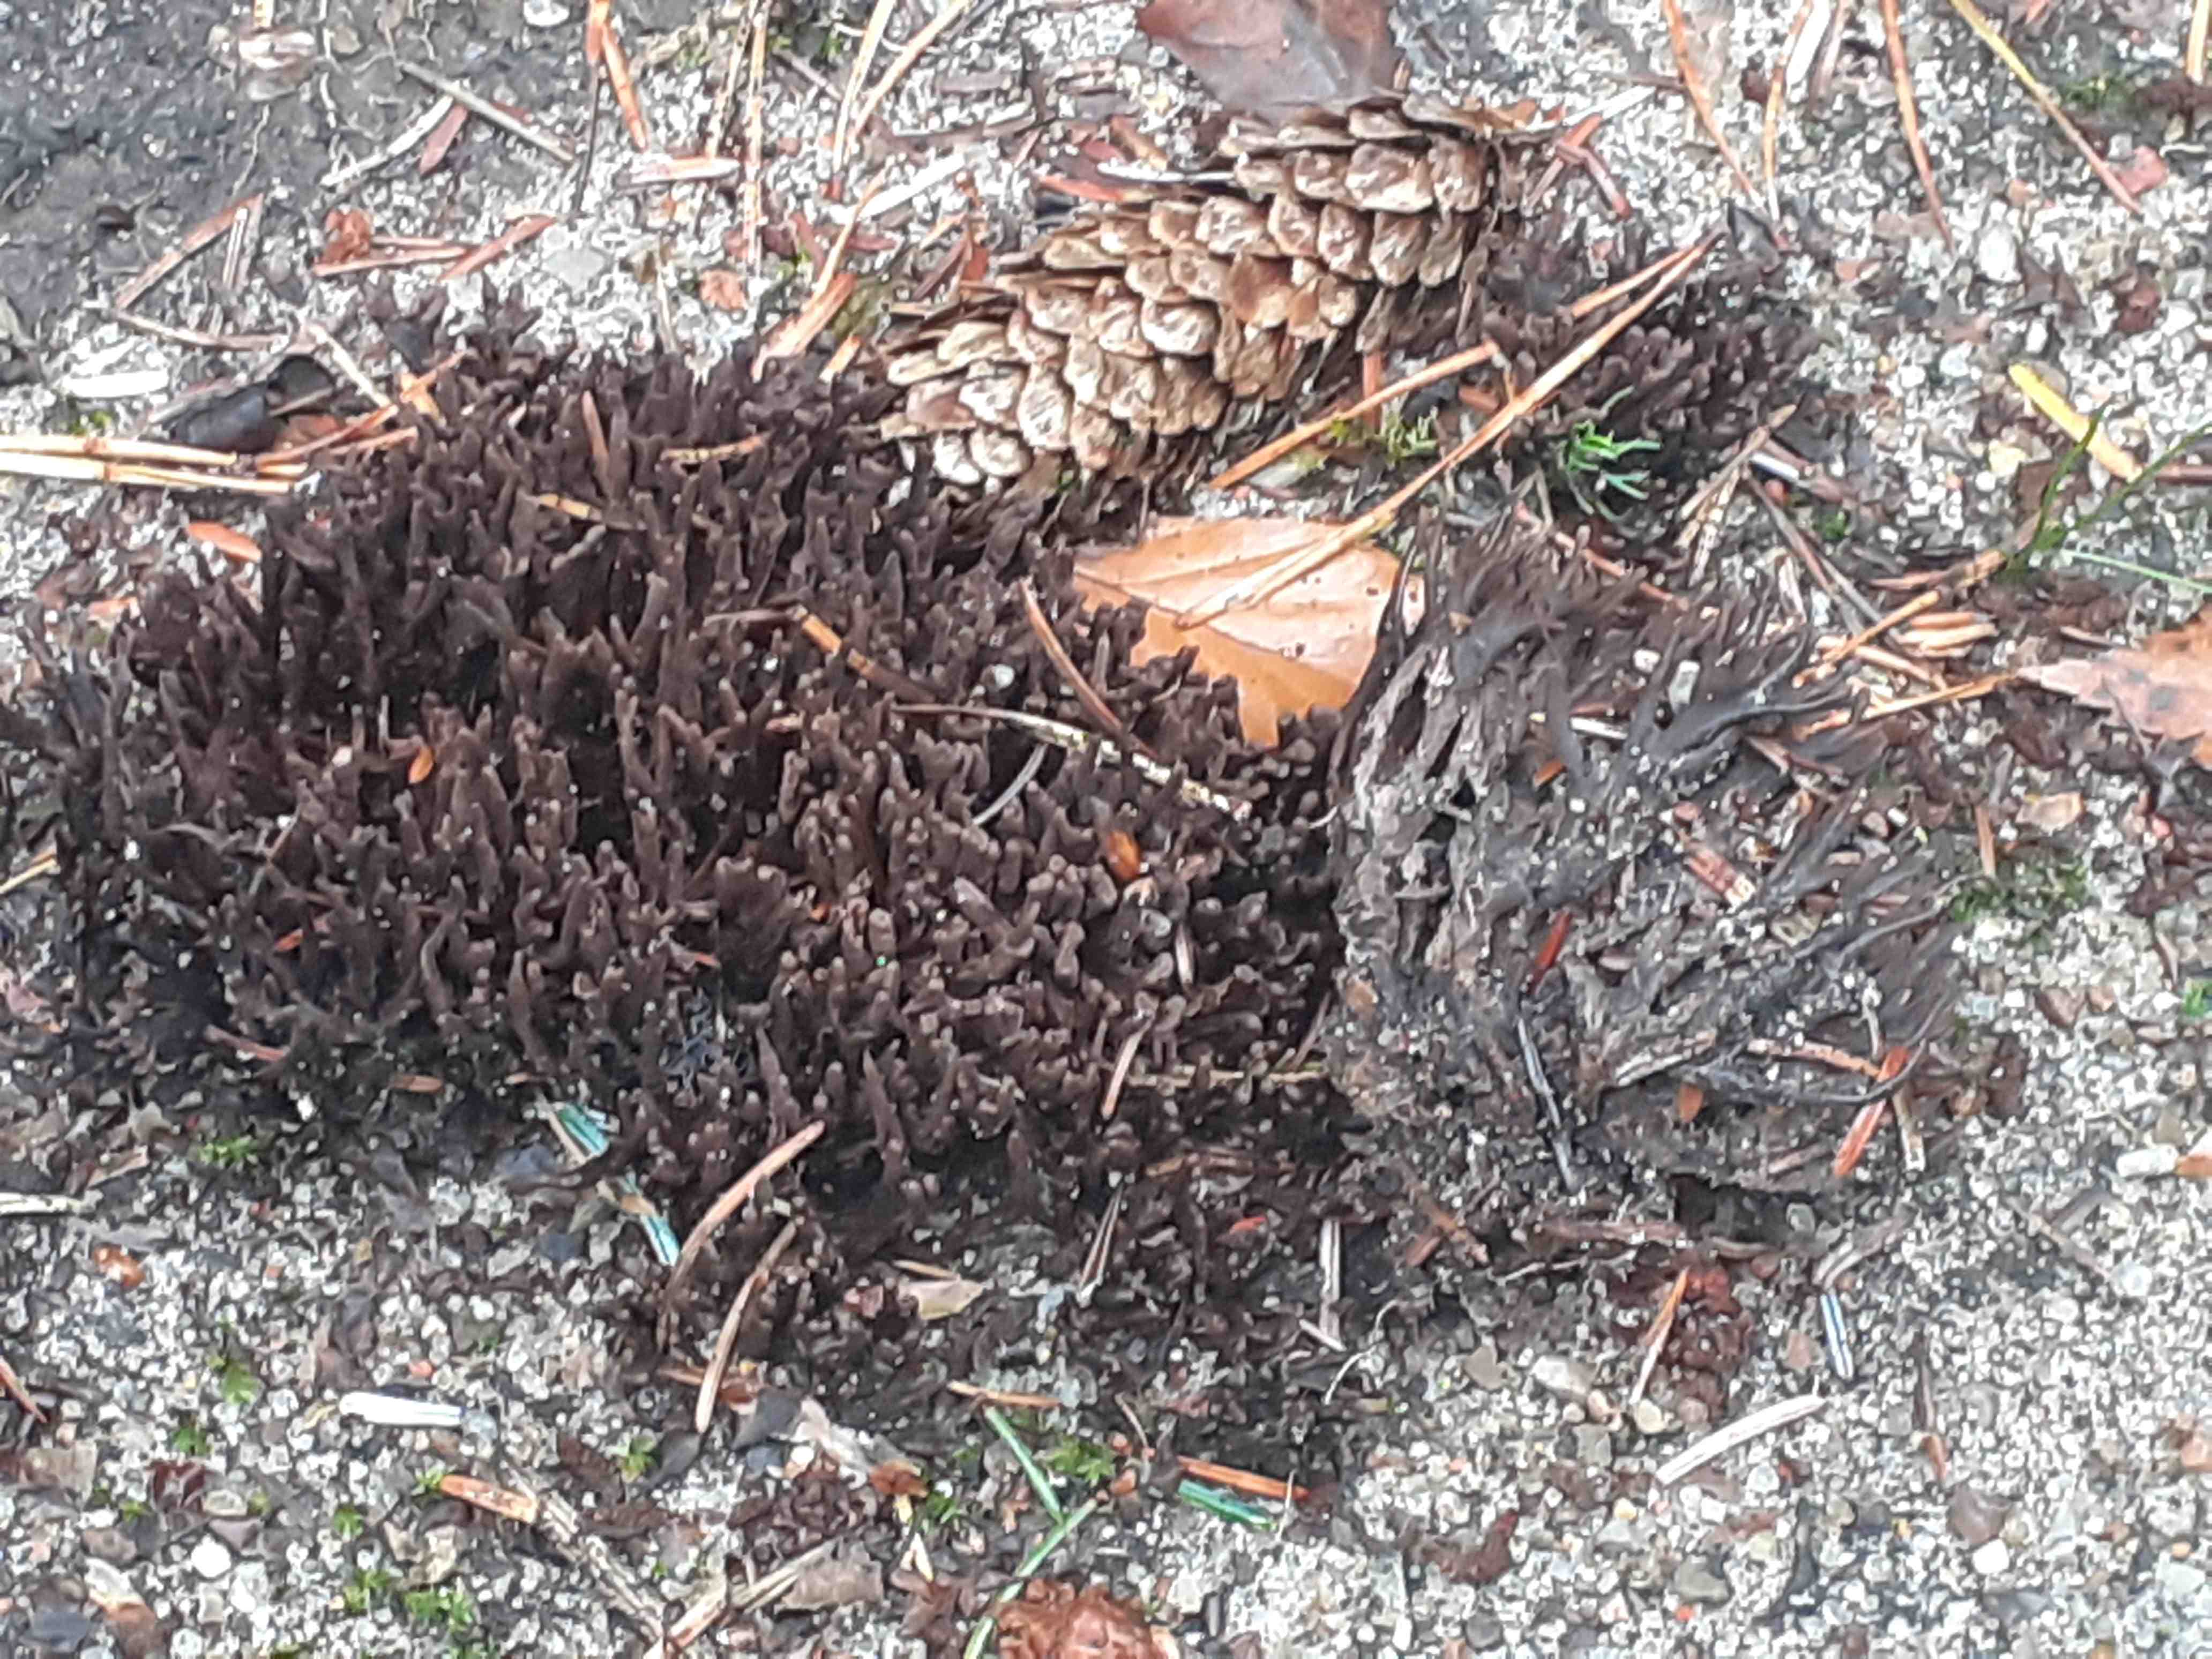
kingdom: Fungi
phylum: Basidiomycota
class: Agaricomycetes
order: Thelephorales
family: Thelephoraceae
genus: Thelephora
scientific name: Thelephora palmata
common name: grenet frynsesvamp
